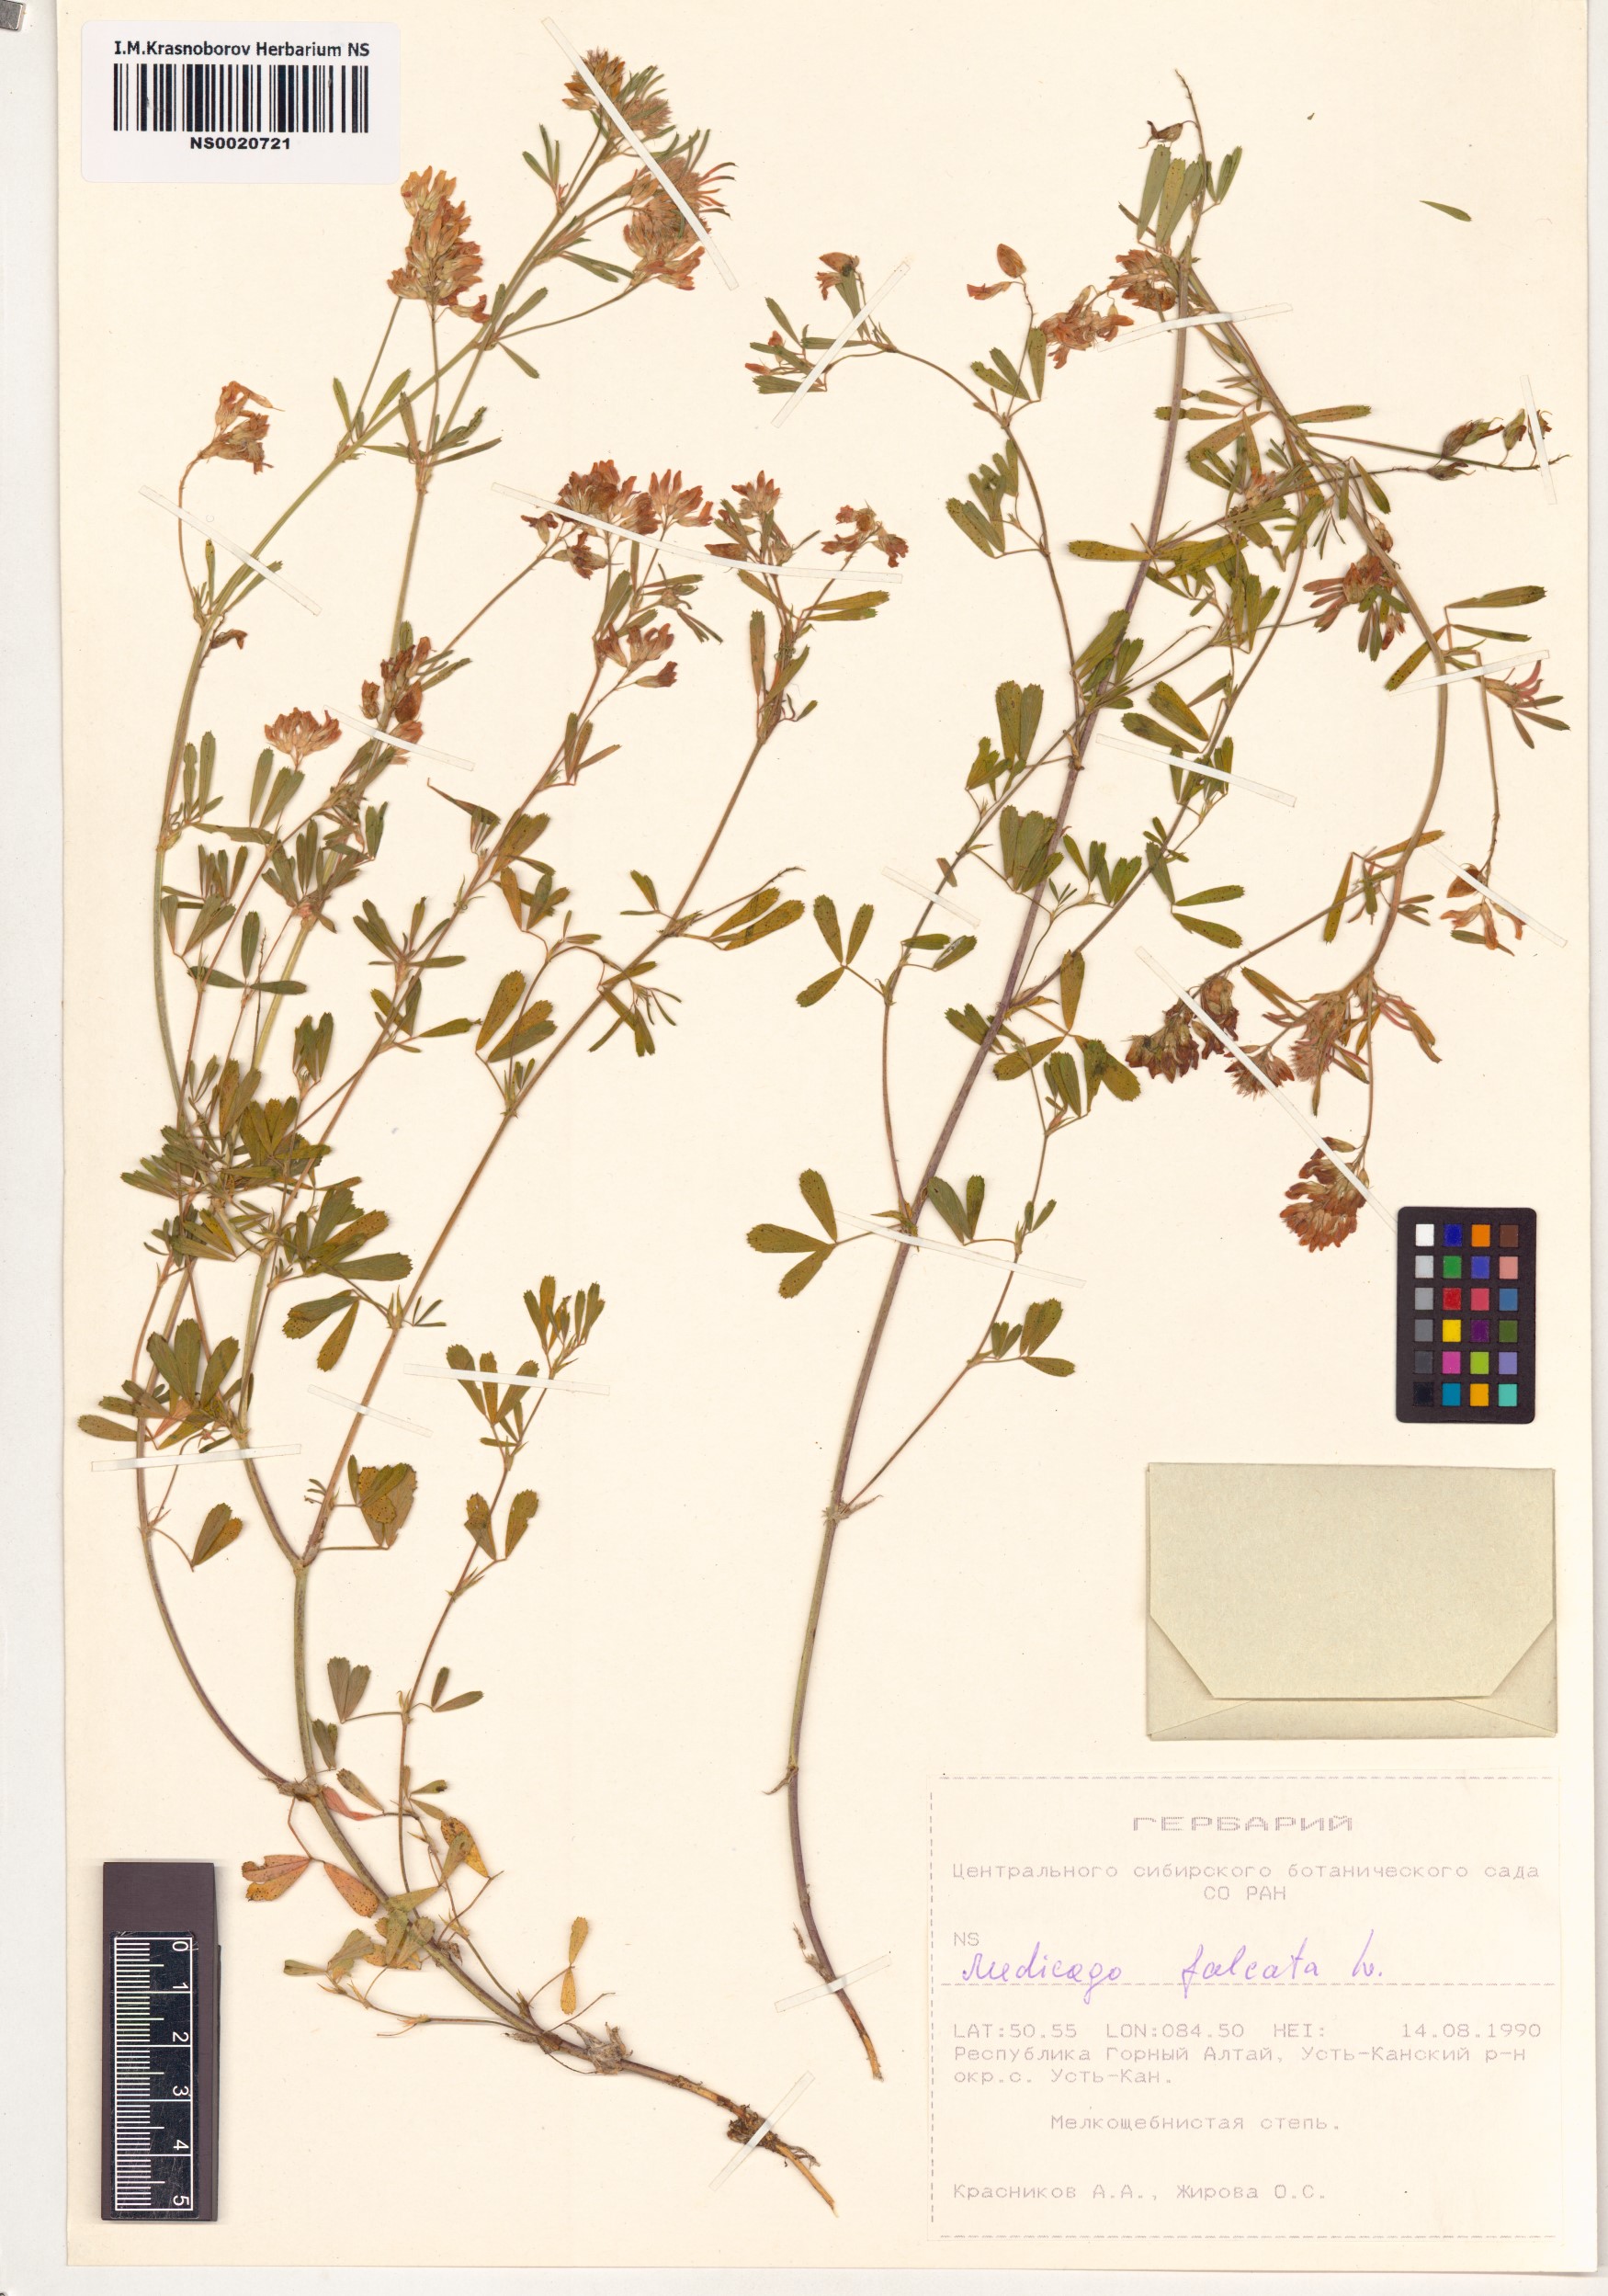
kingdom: Plantae
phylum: Tracheophyta
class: Magnoliopsida
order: Fabales
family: Fabaceae
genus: Medicago
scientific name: Medicago falcata
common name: Sickle medick
